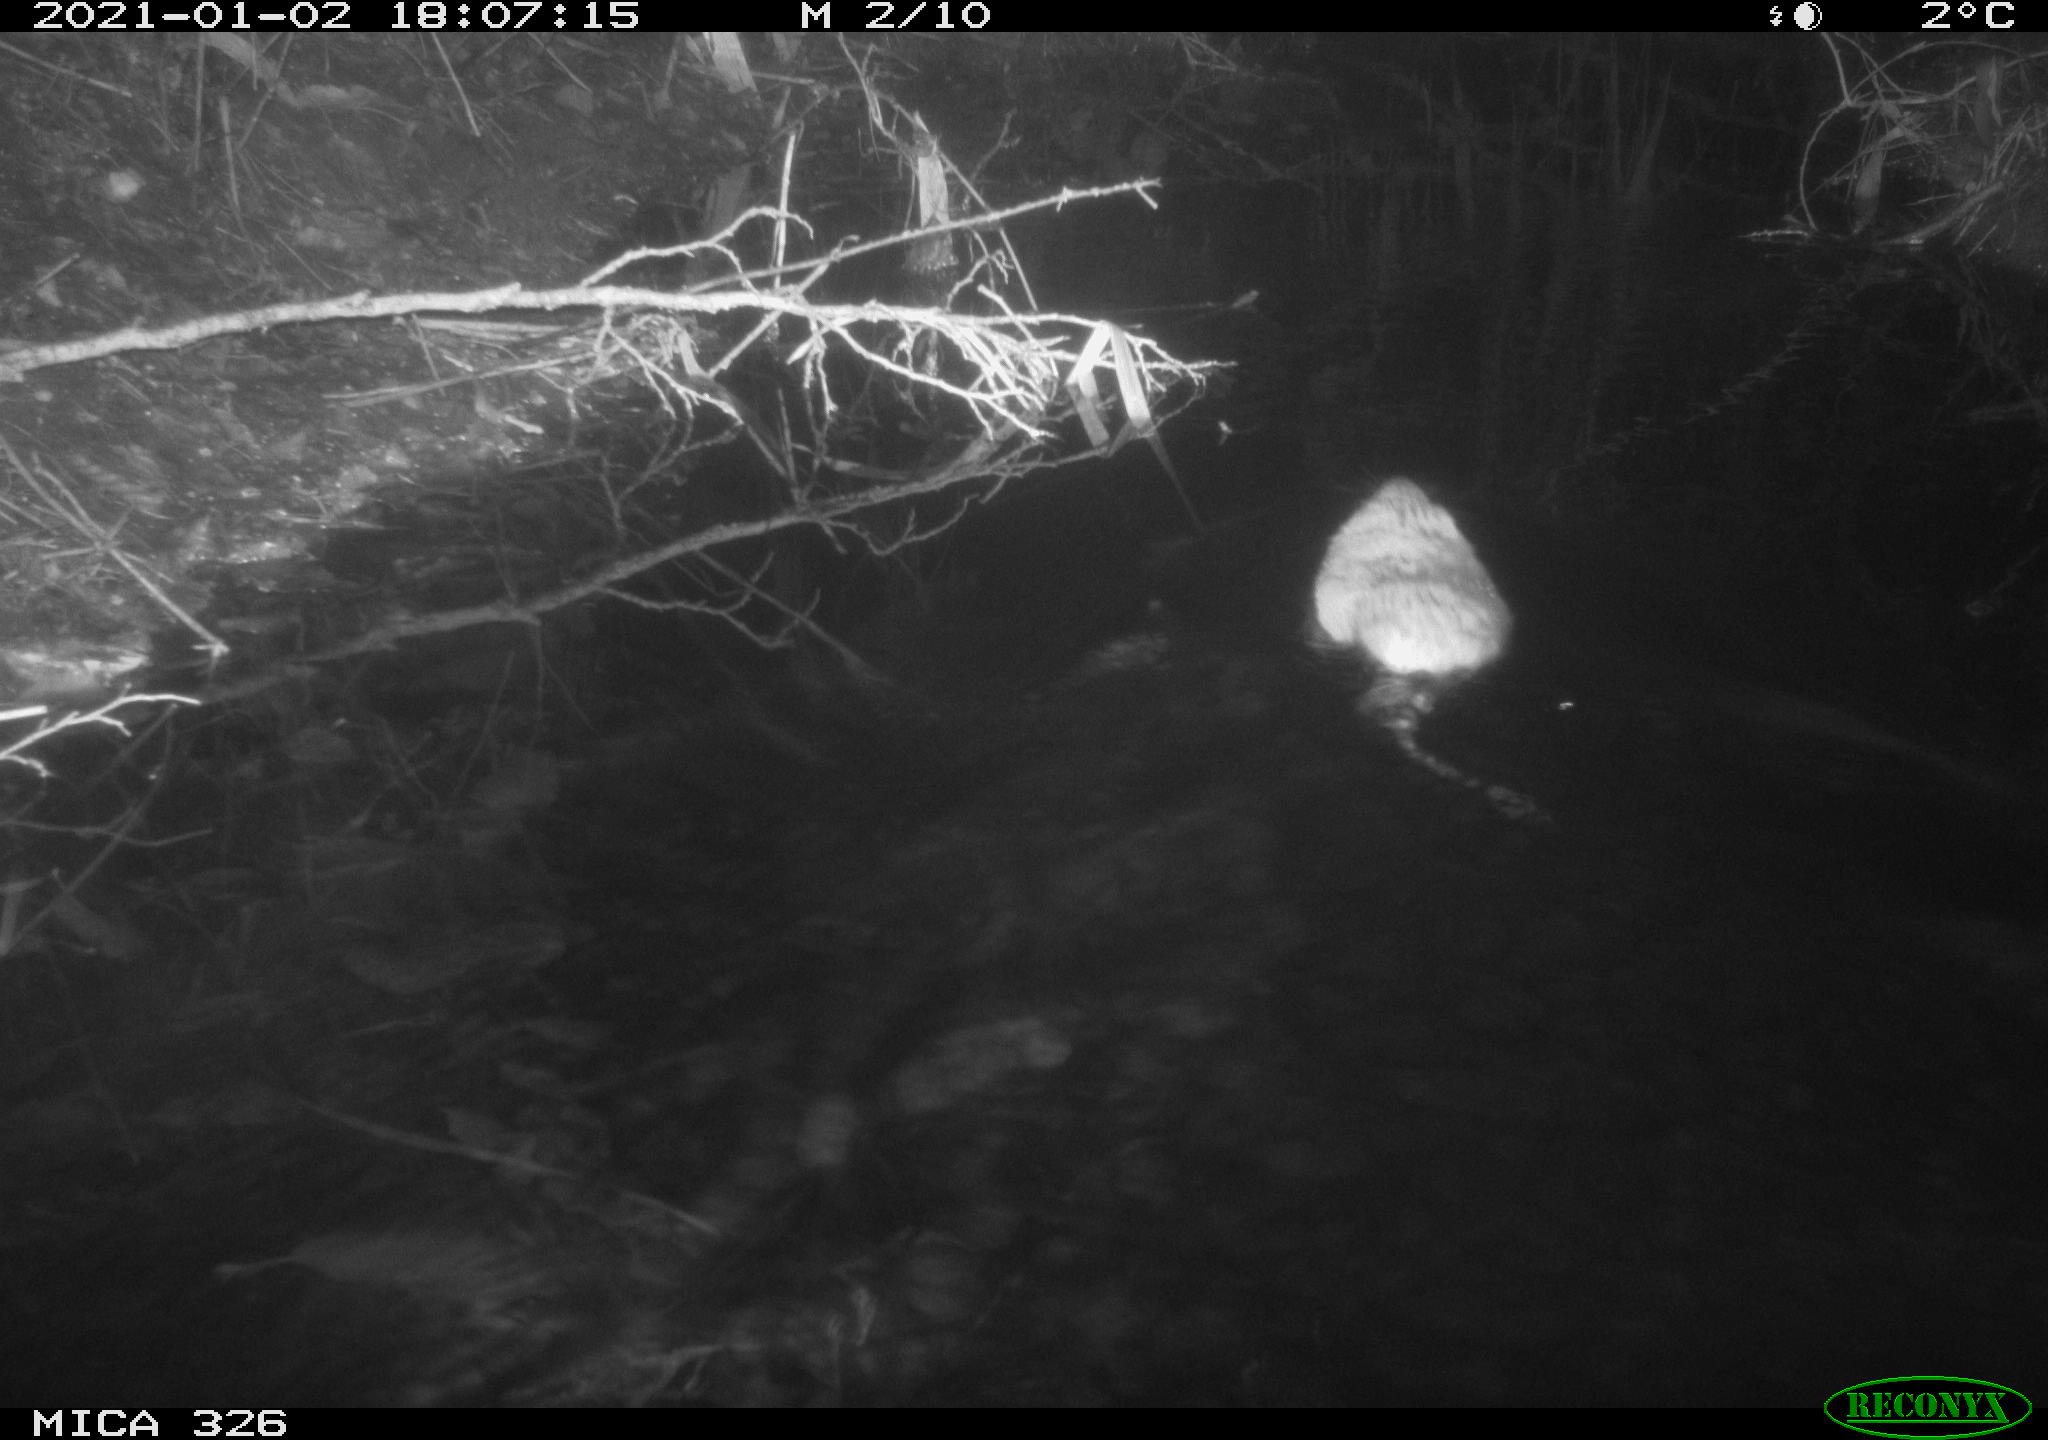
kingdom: Animalia
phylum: Chordata
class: Mammalia
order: Rodentia
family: Cricetidae
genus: Ondatra
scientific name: Ondatra zibethicus
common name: Muskrat
